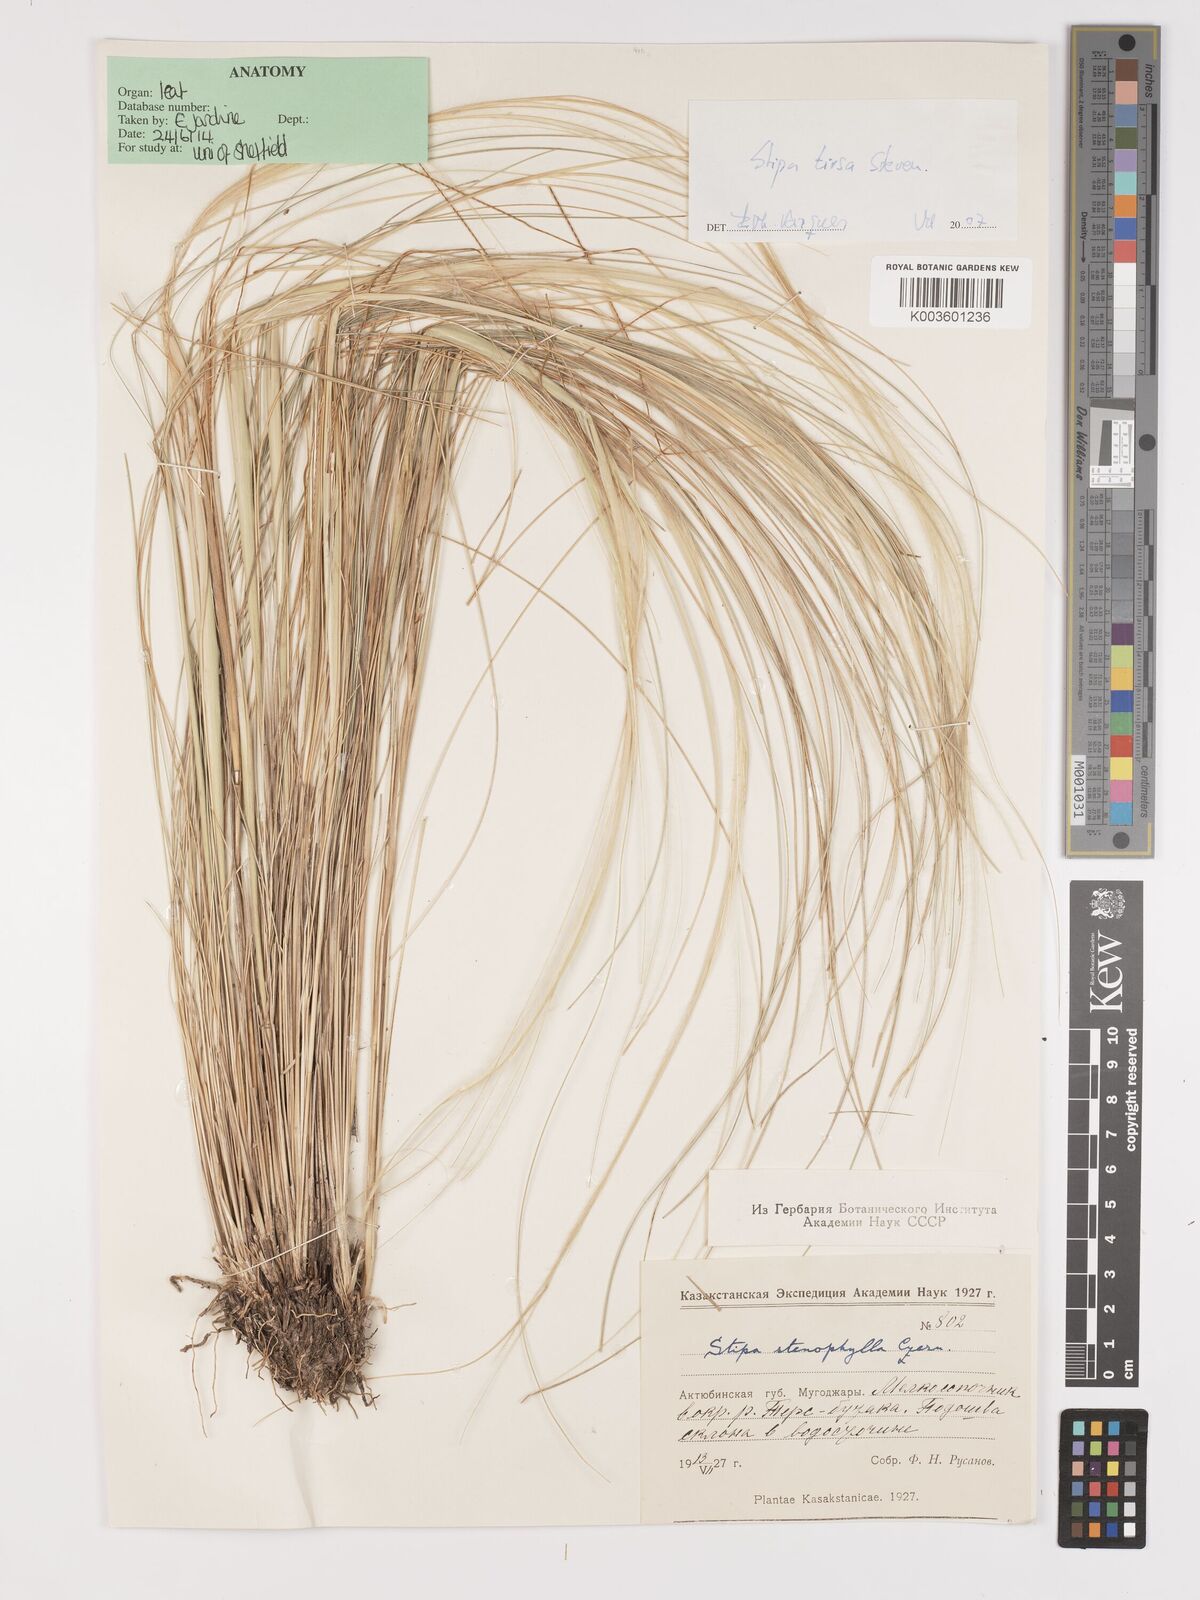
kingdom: Plantae
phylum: Tracheophyta
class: Liliopsida
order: Poales
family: Poaceae
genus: Stipa
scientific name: Stipa tirsa
